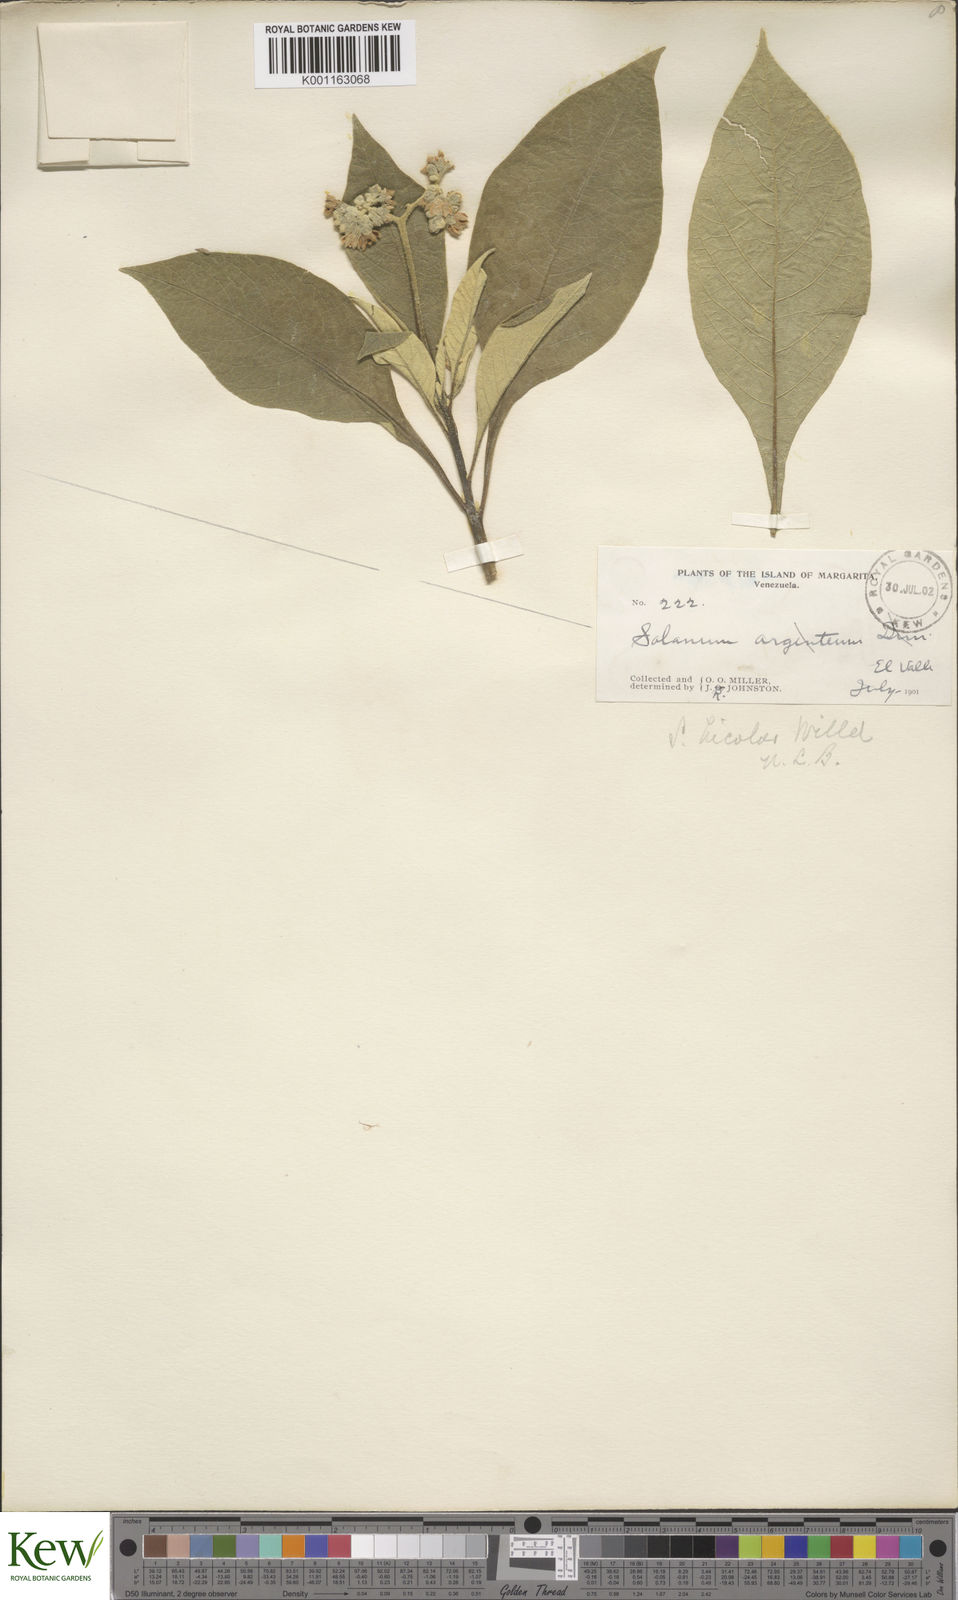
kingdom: Plantae
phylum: Tracheophyta
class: Magnoliopsida
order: Solanales
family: Solanaceae
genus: Solanum
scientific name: Solanum bicolor
